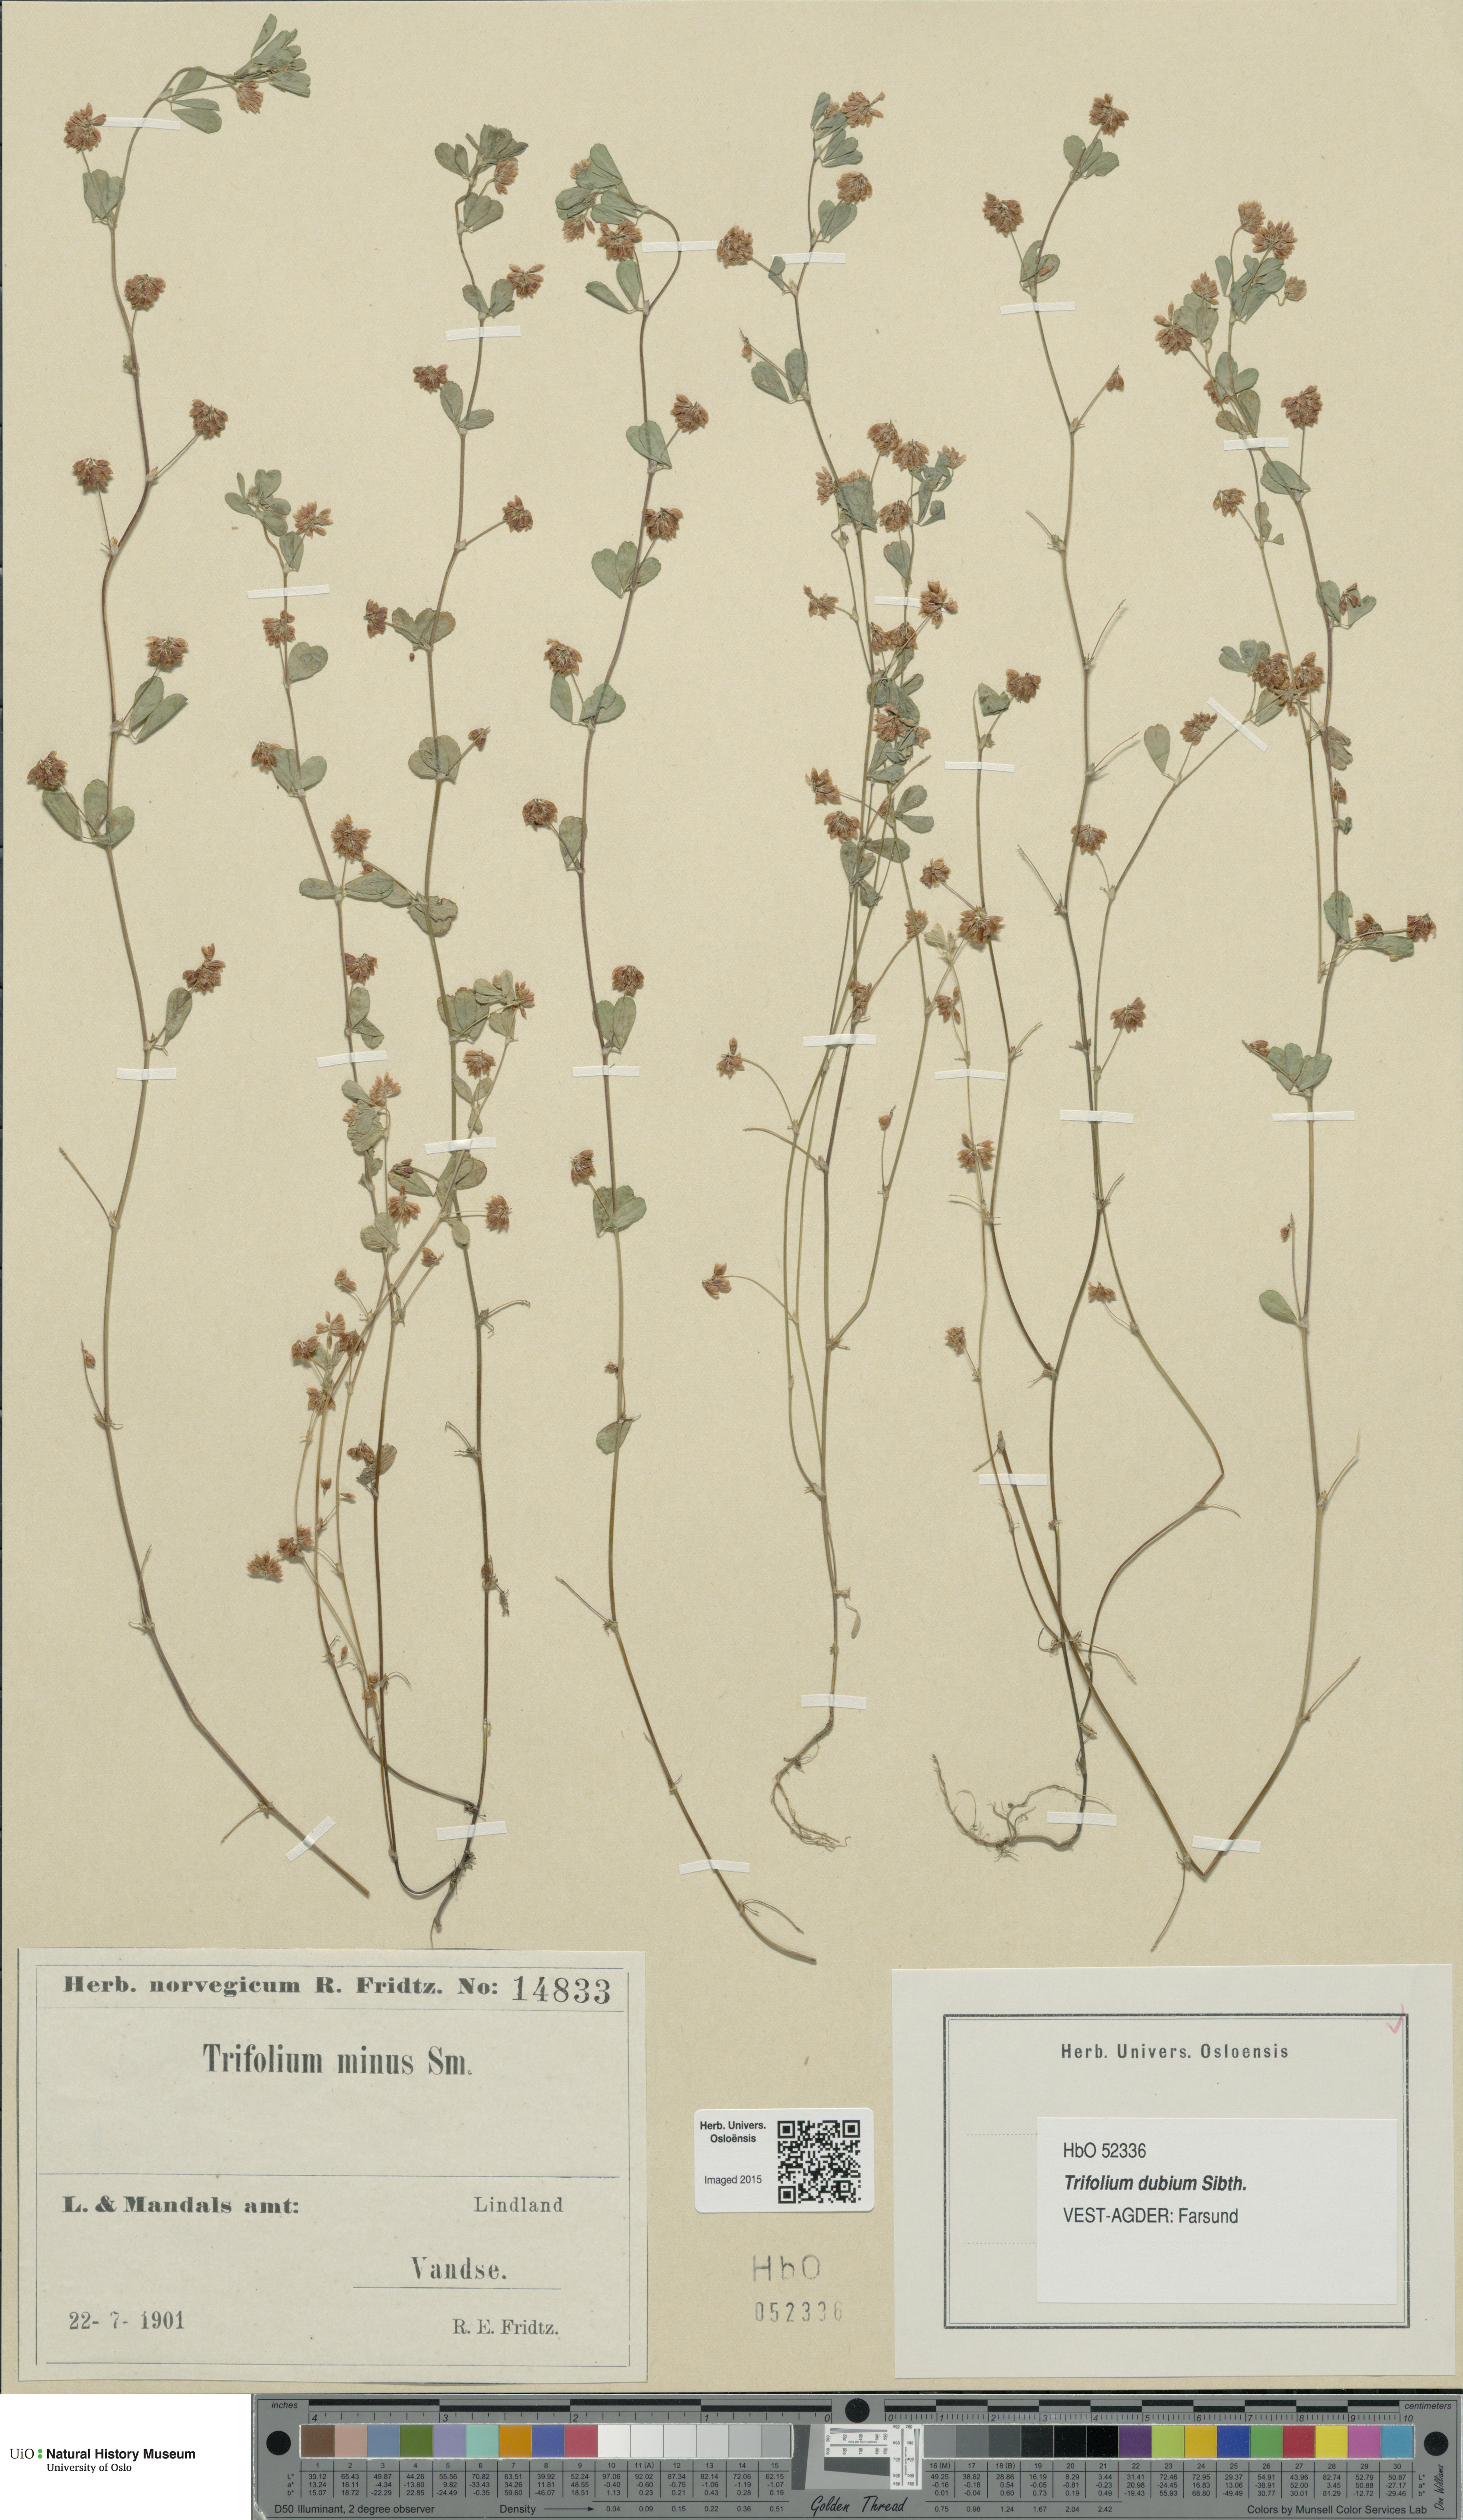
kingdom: Plantae
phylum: Tracheophyta
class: Magnoliopsida
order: Fabales
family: Fabaceae
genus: Trifolium
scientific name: Trifolium dubium
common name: Suckling clover
